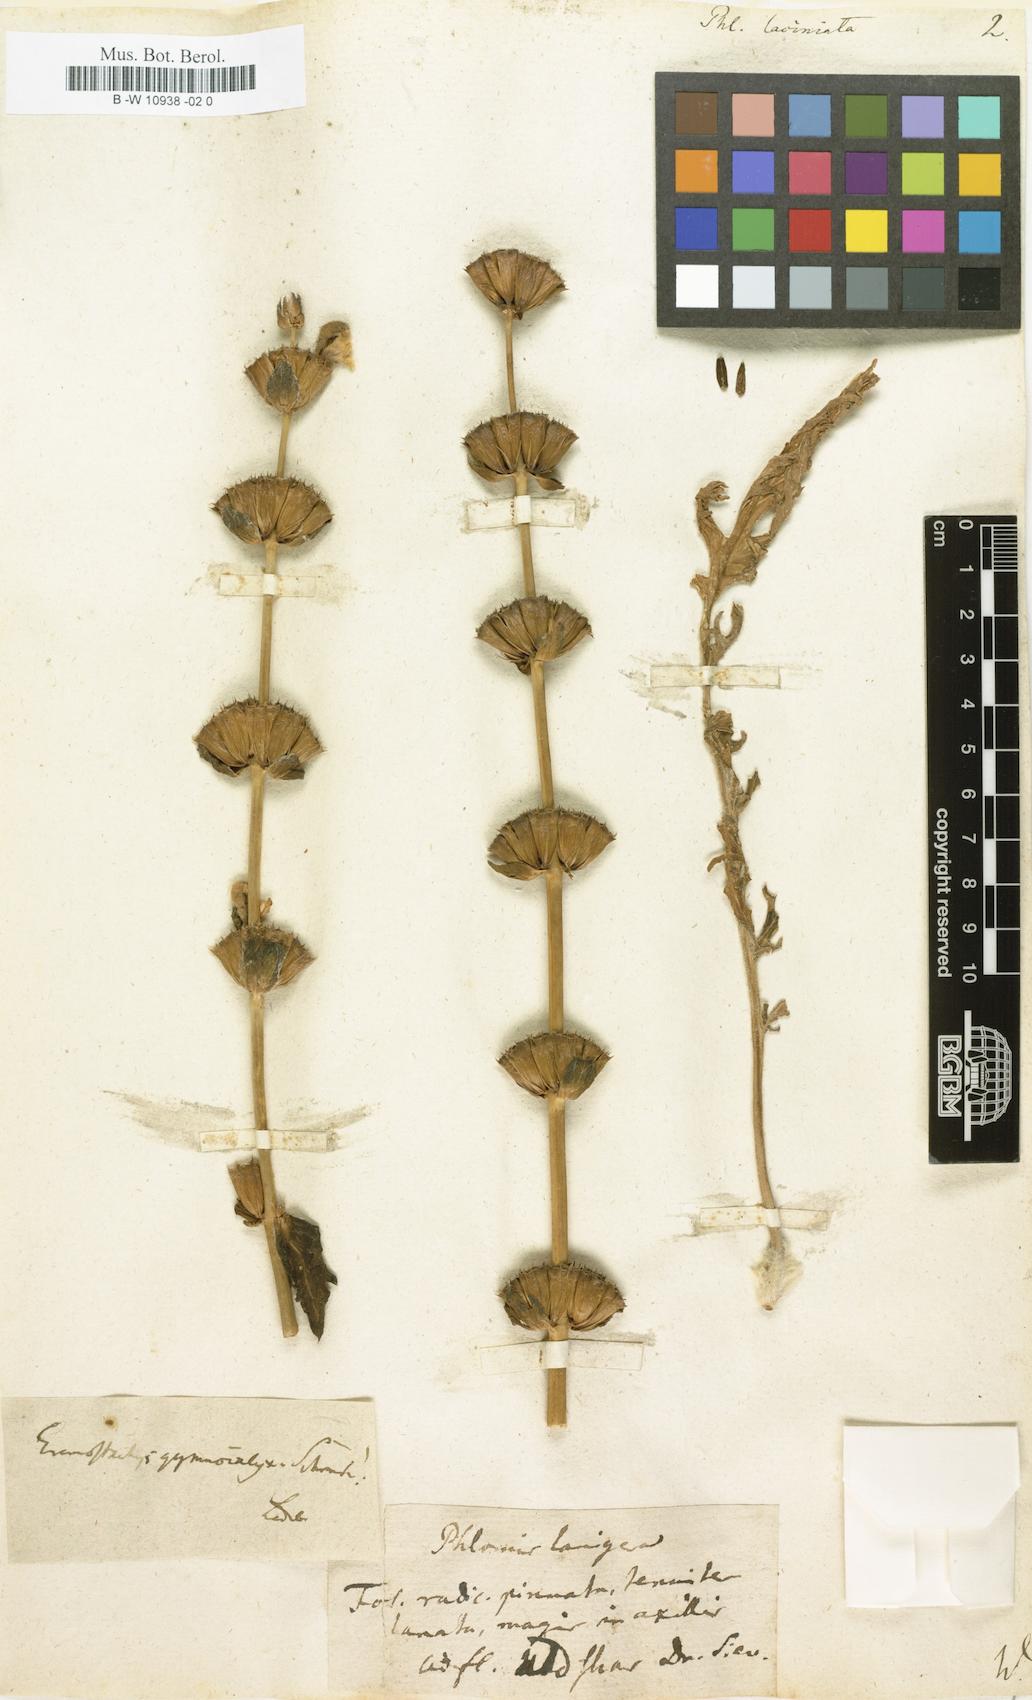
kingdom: Plantae
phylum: Tracheophyta
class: Magnoliopsida
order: Lamiales
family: Lamiaceae
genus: Phlomis
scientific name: Phlomis laciniata
